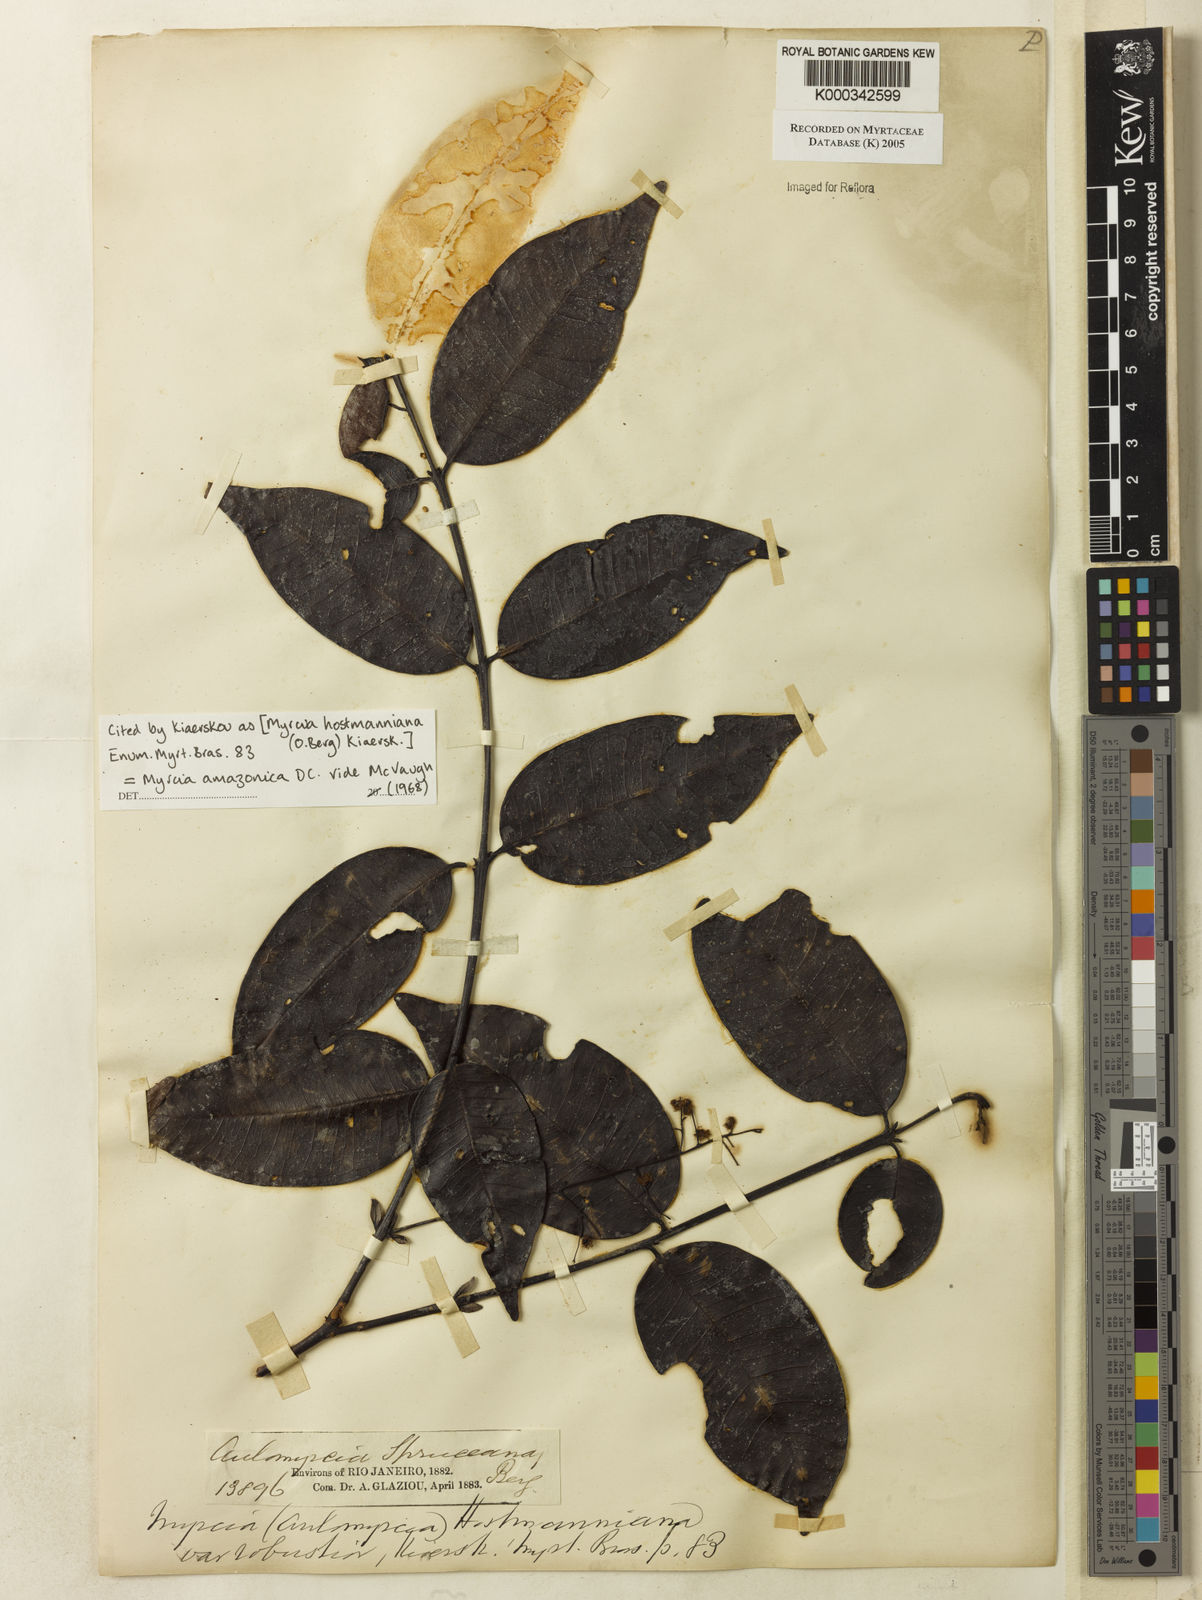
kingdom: Plantae
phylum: Tracheophyta
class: Magnoliopsida
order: Myrtales
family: Myrtaceae
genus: Myrcia
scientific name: Myrcia amazonica
